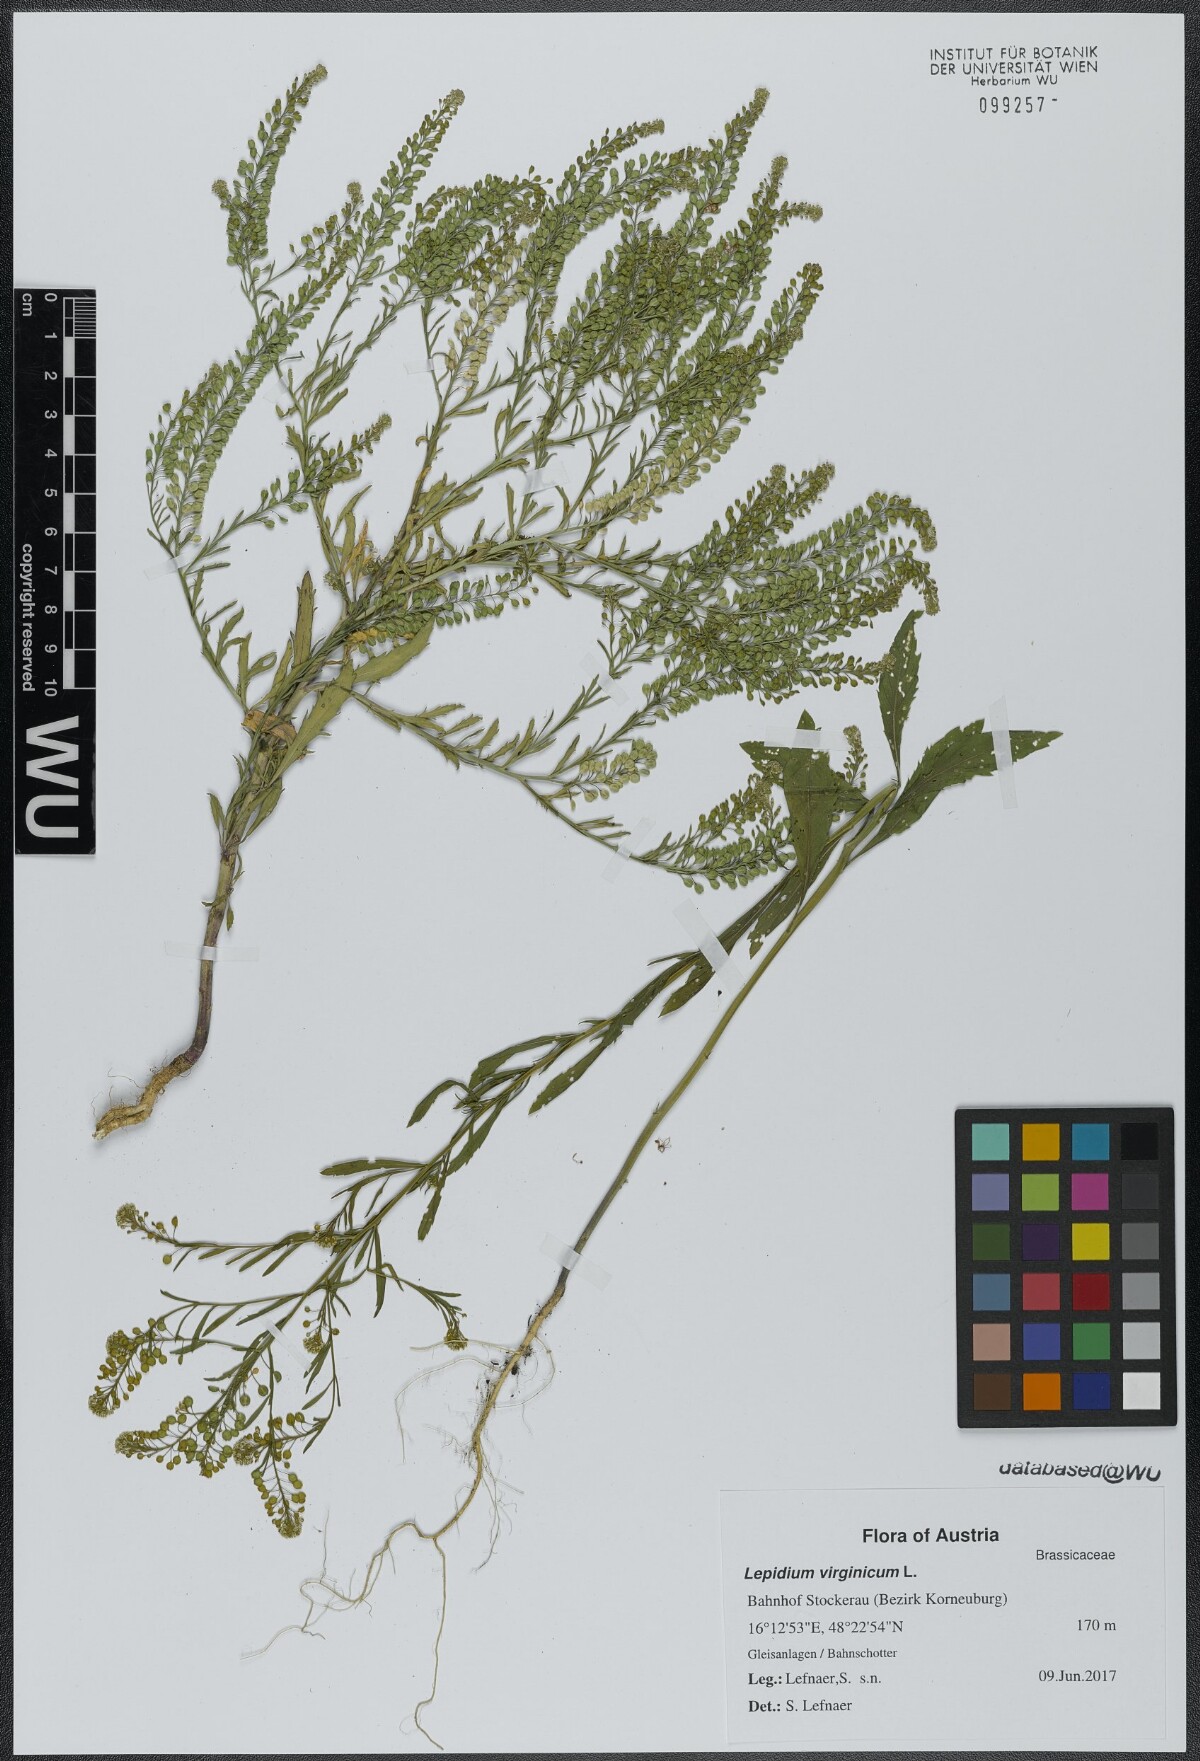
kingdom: Plantae
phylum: Tracheophyta
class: Magnoliopsida
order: Brassicales
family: Brassicaceae
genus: Lepidium
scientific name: Lepidium virginicum
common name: Least pepperwort
